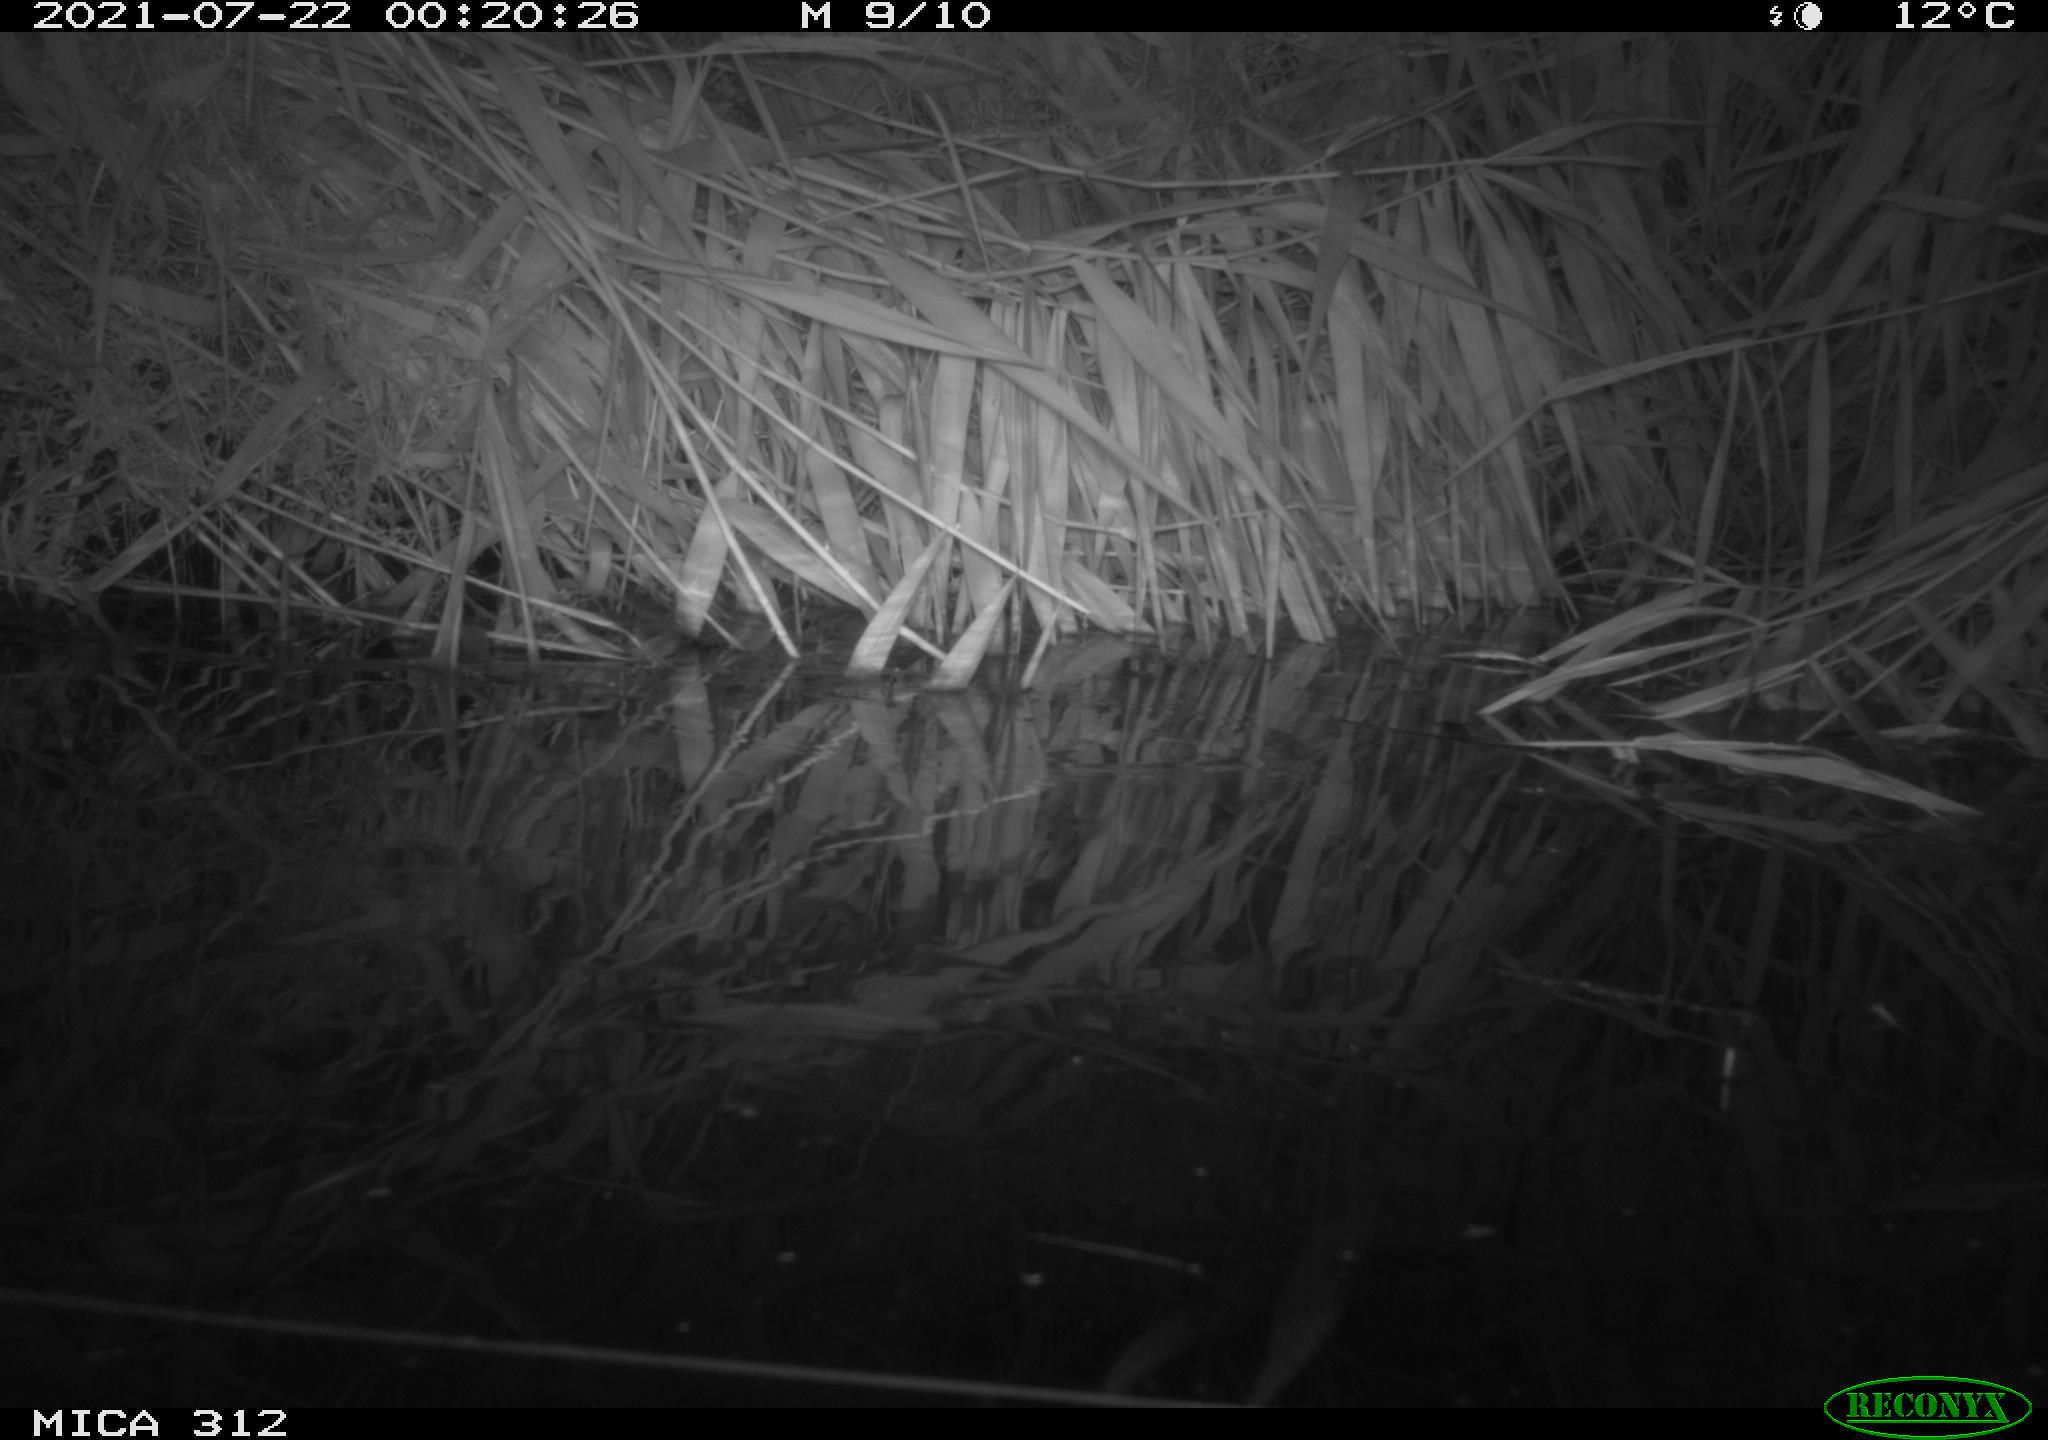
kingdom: Animalia
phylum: Chordata
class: Mammalia
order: Rodentia
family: Muridae
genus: Rattus
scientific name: Rattus norvegicus
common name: Brown rat
